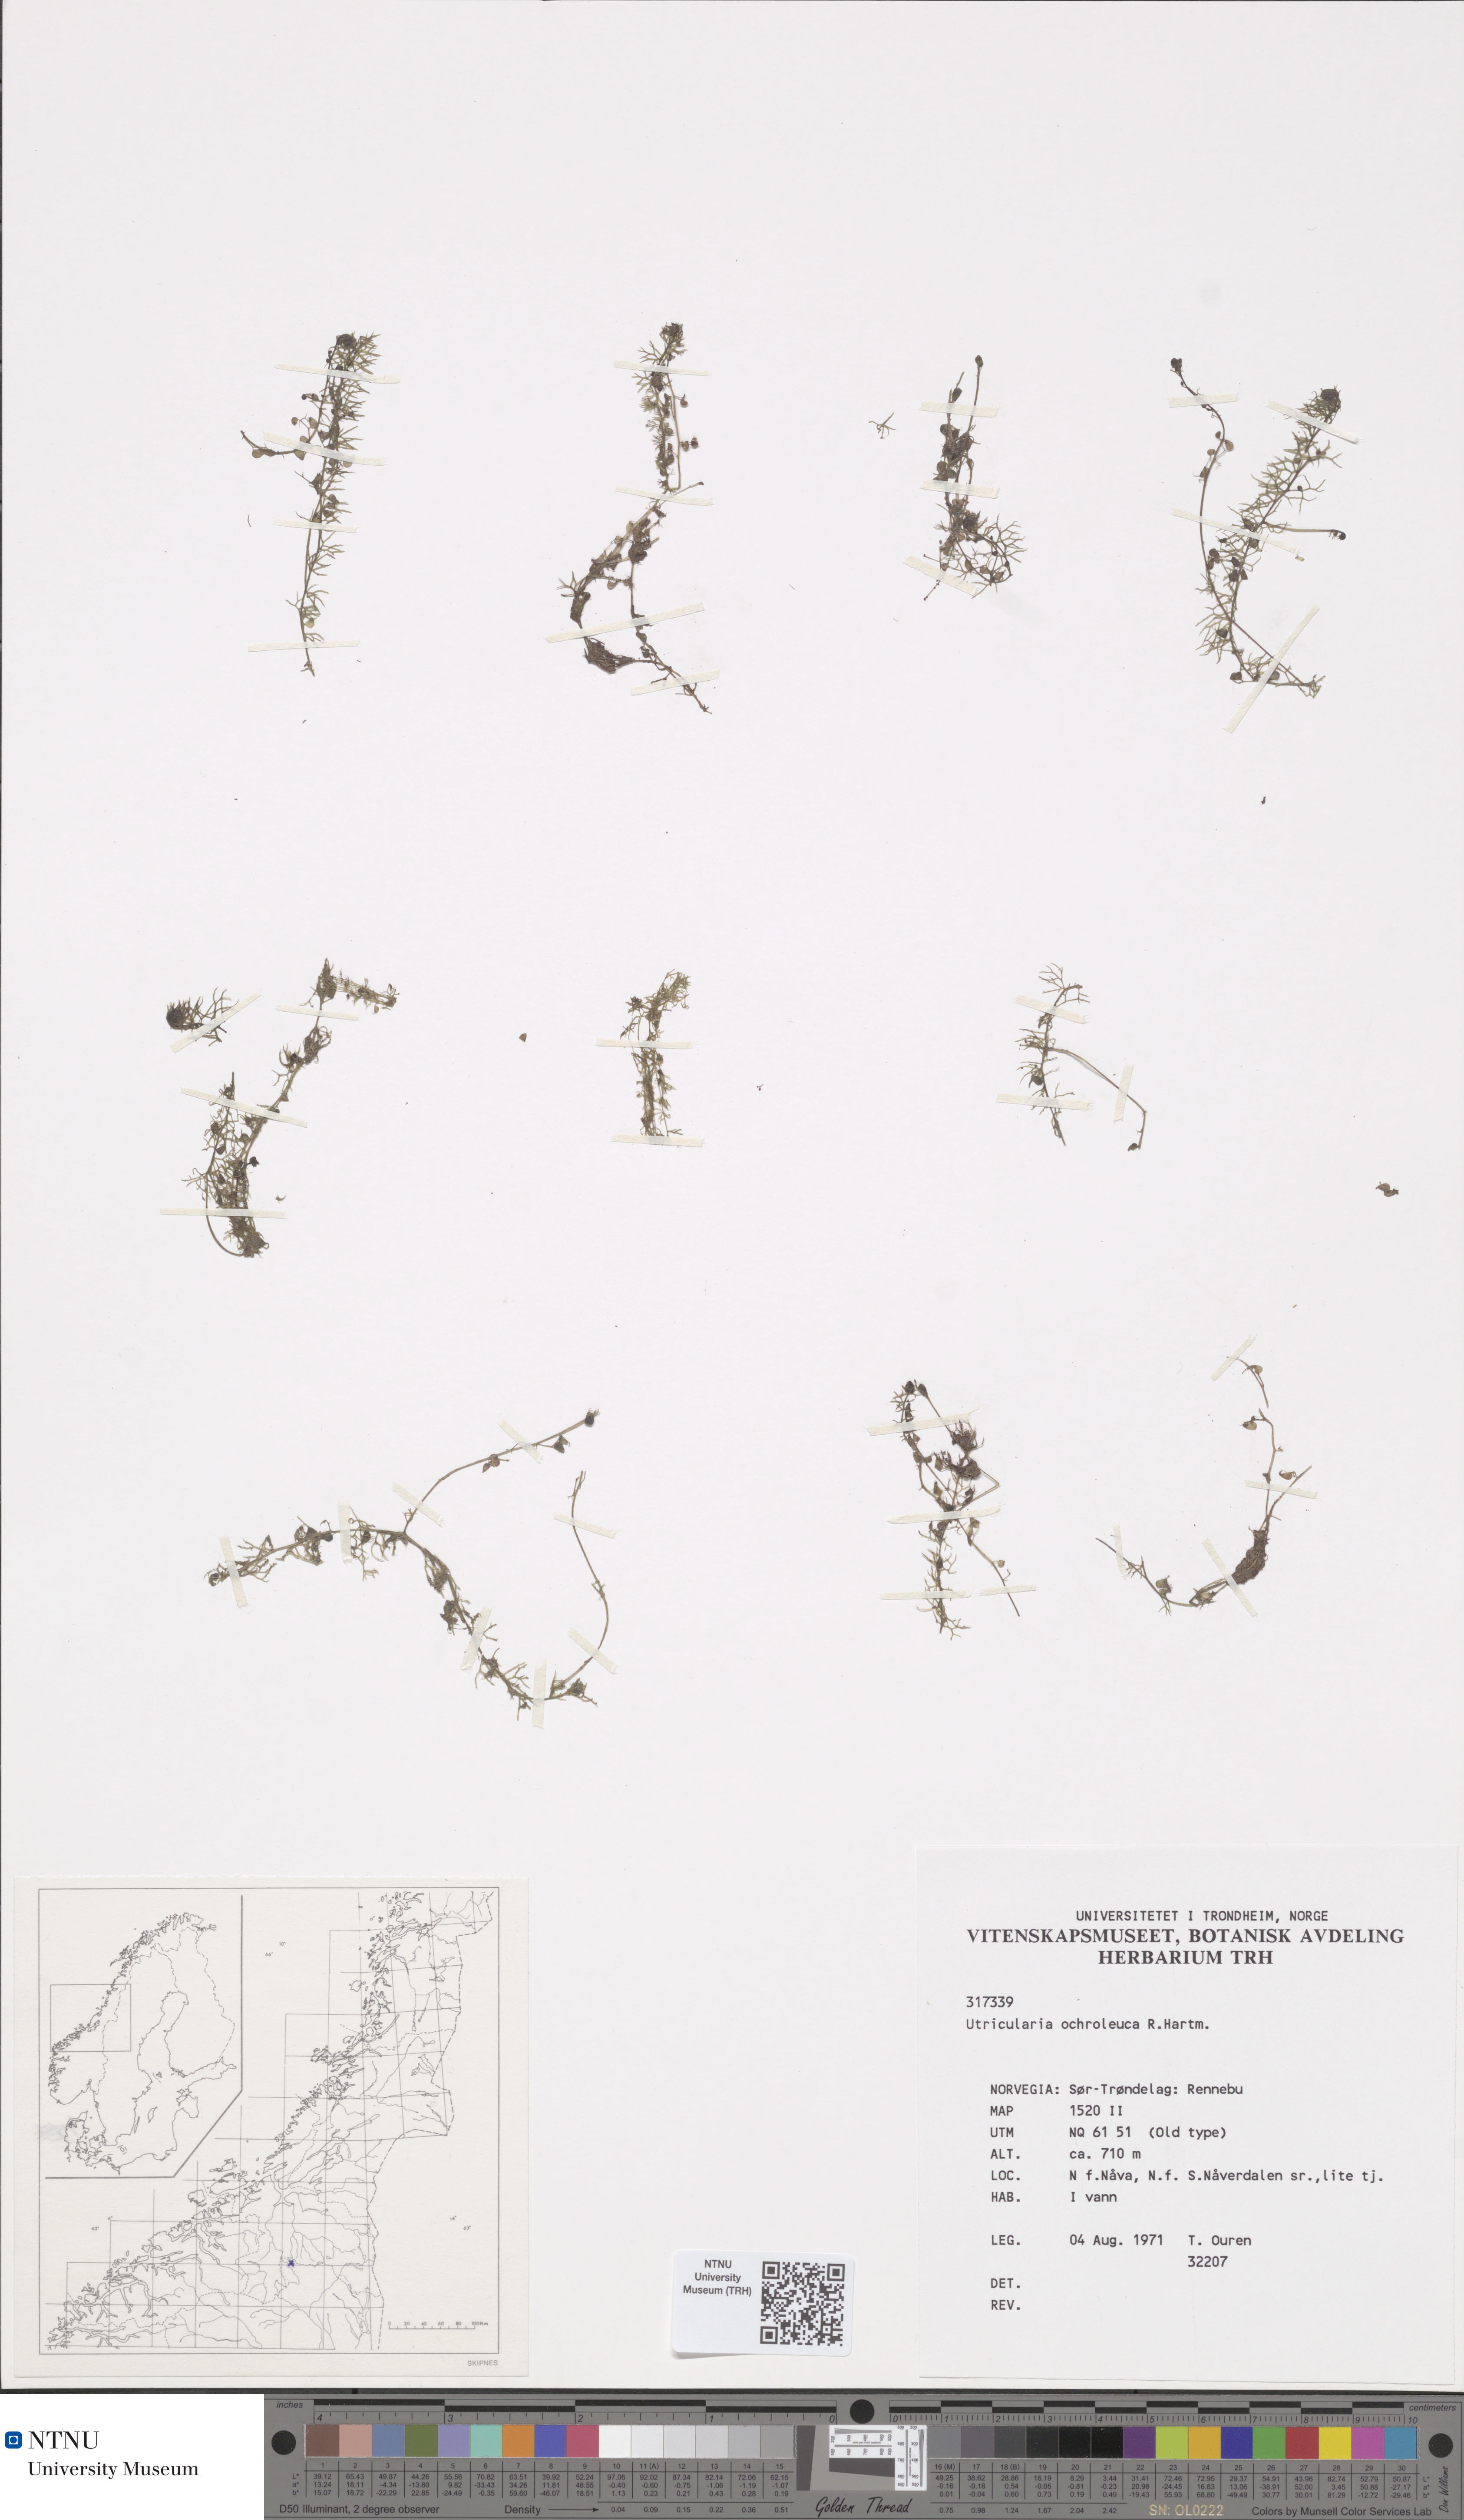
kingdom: Plantae
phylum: Tracheophyta
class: Magnoliopsida
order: Lamiales
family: Lentibulariaceae
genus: Utricularia
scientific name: Utricularia ochroleuca
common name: Pale bladderwort
